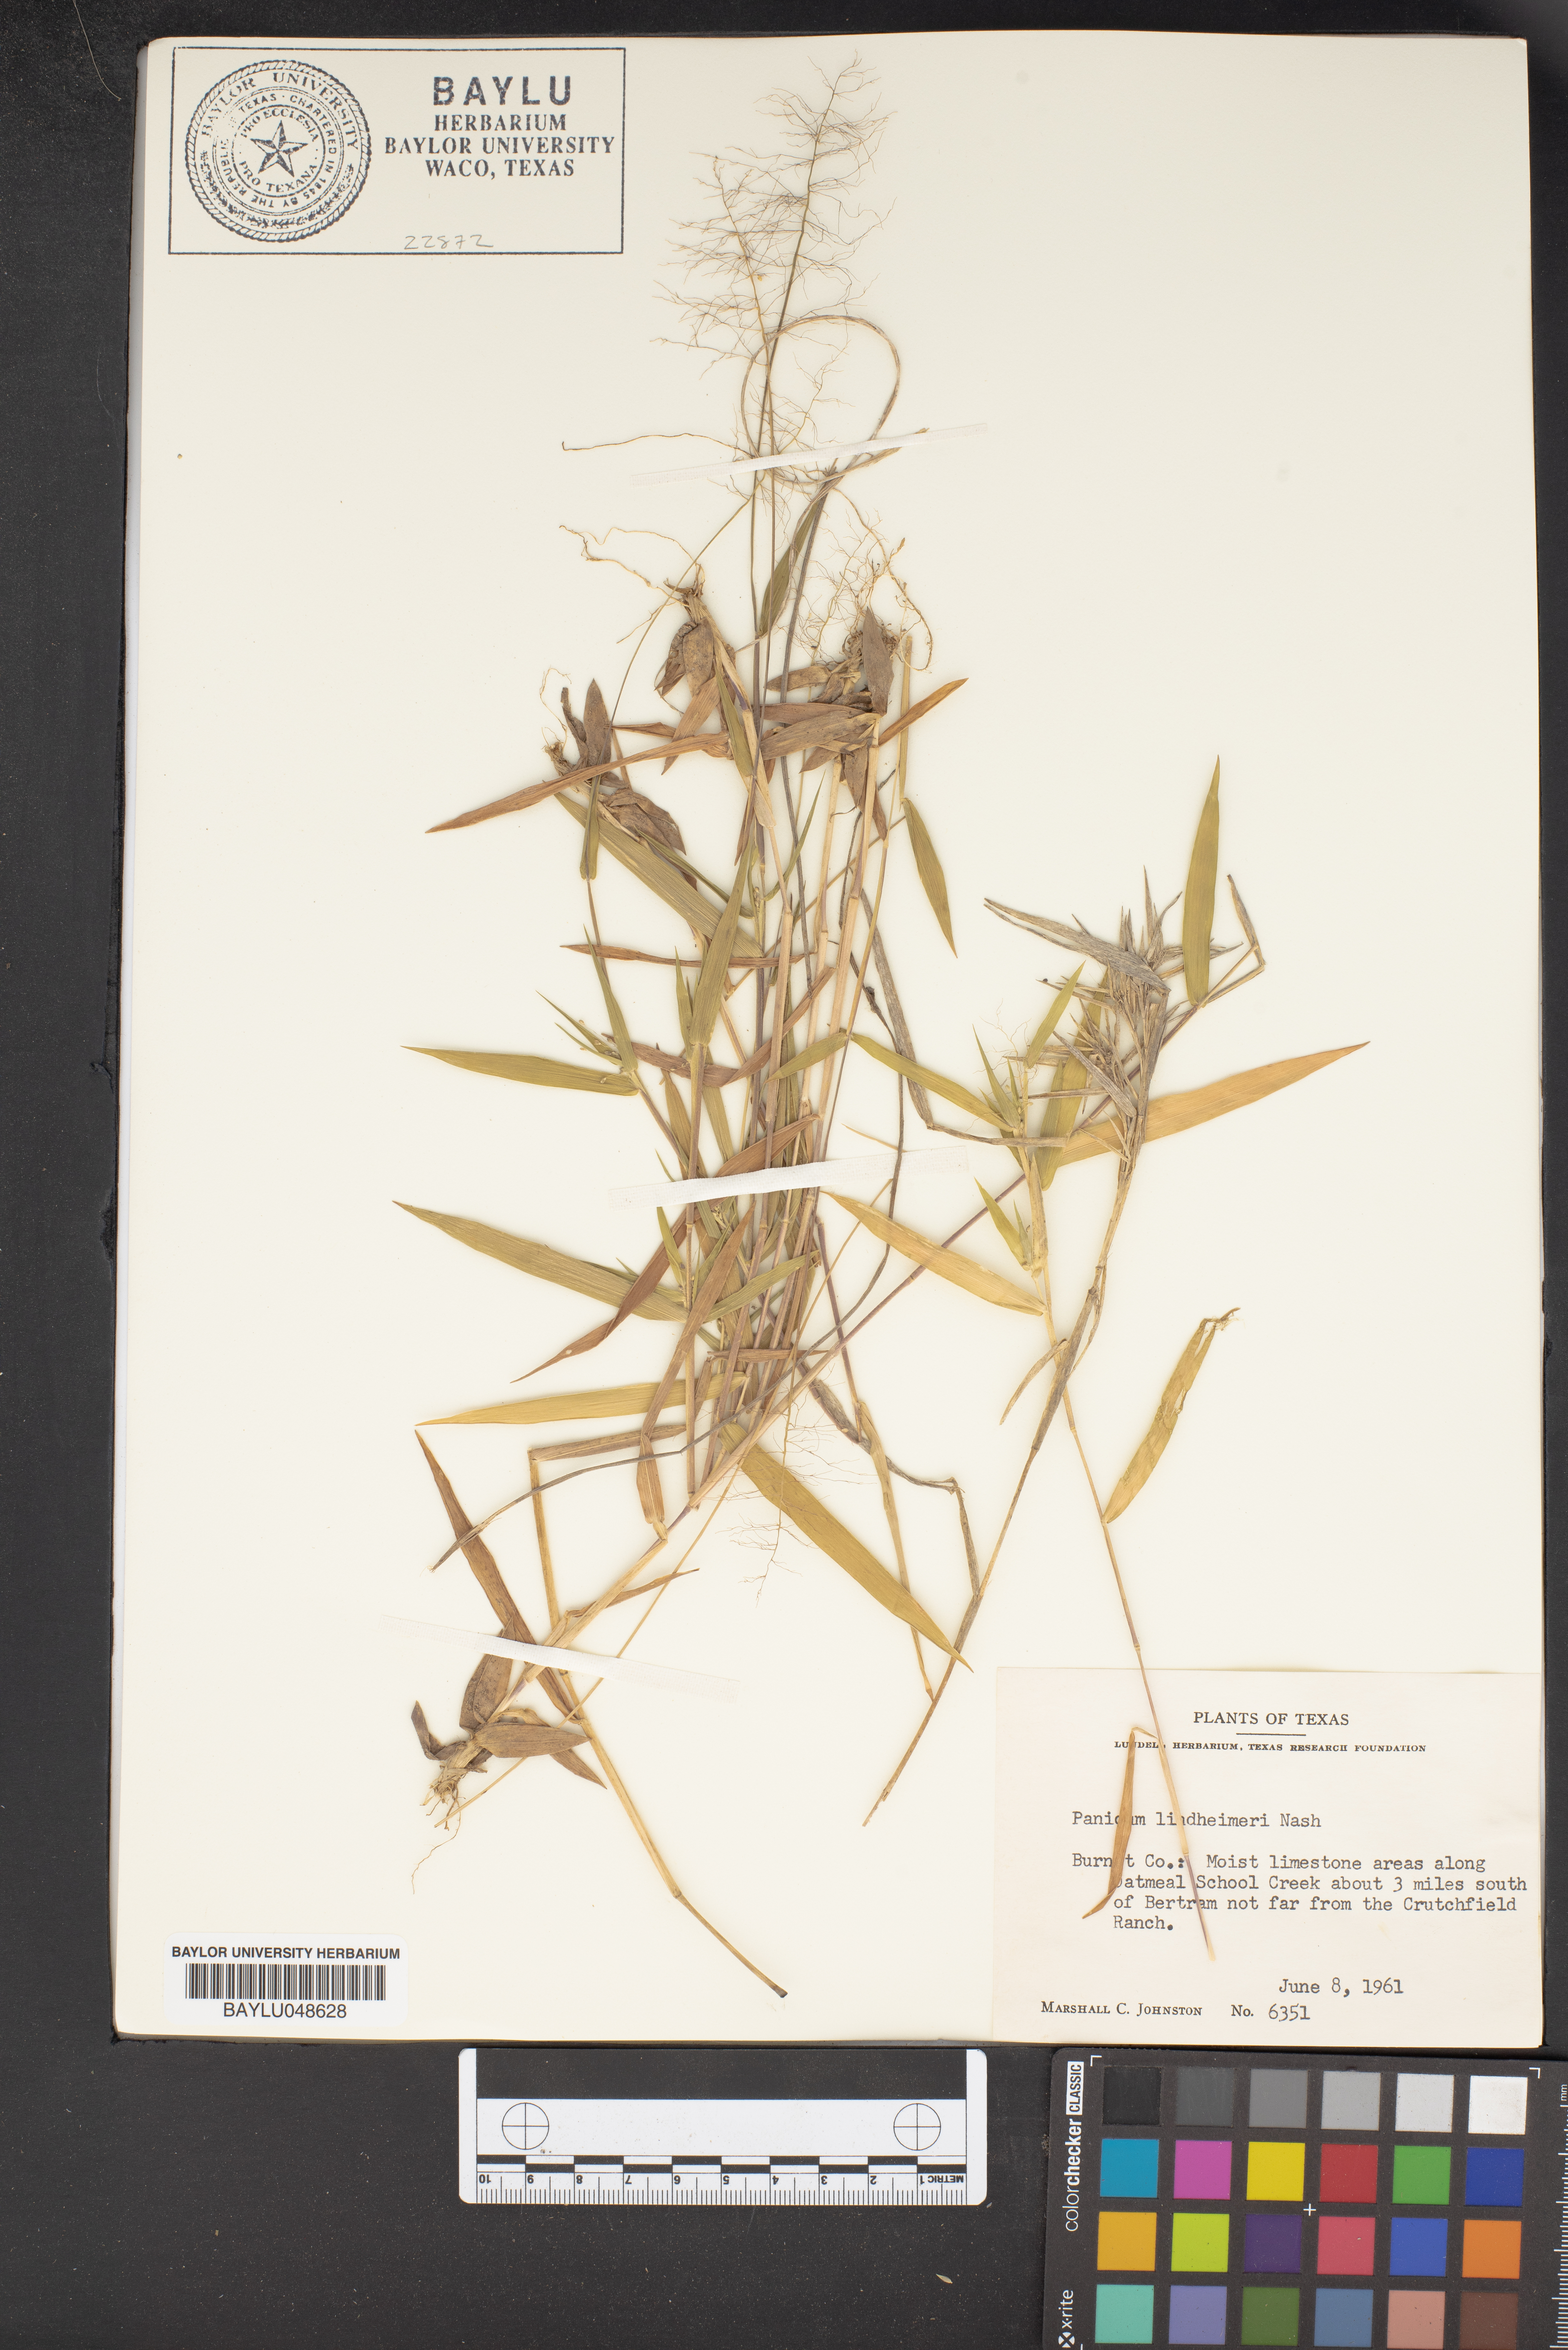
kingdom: Plantae
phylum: Tracheophyta
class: Liliopsida
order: Poales
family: Poaceae
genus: Dichanthelium
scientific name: Dichanthelium lindheimeri
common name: Lindheimer's panicgrass
